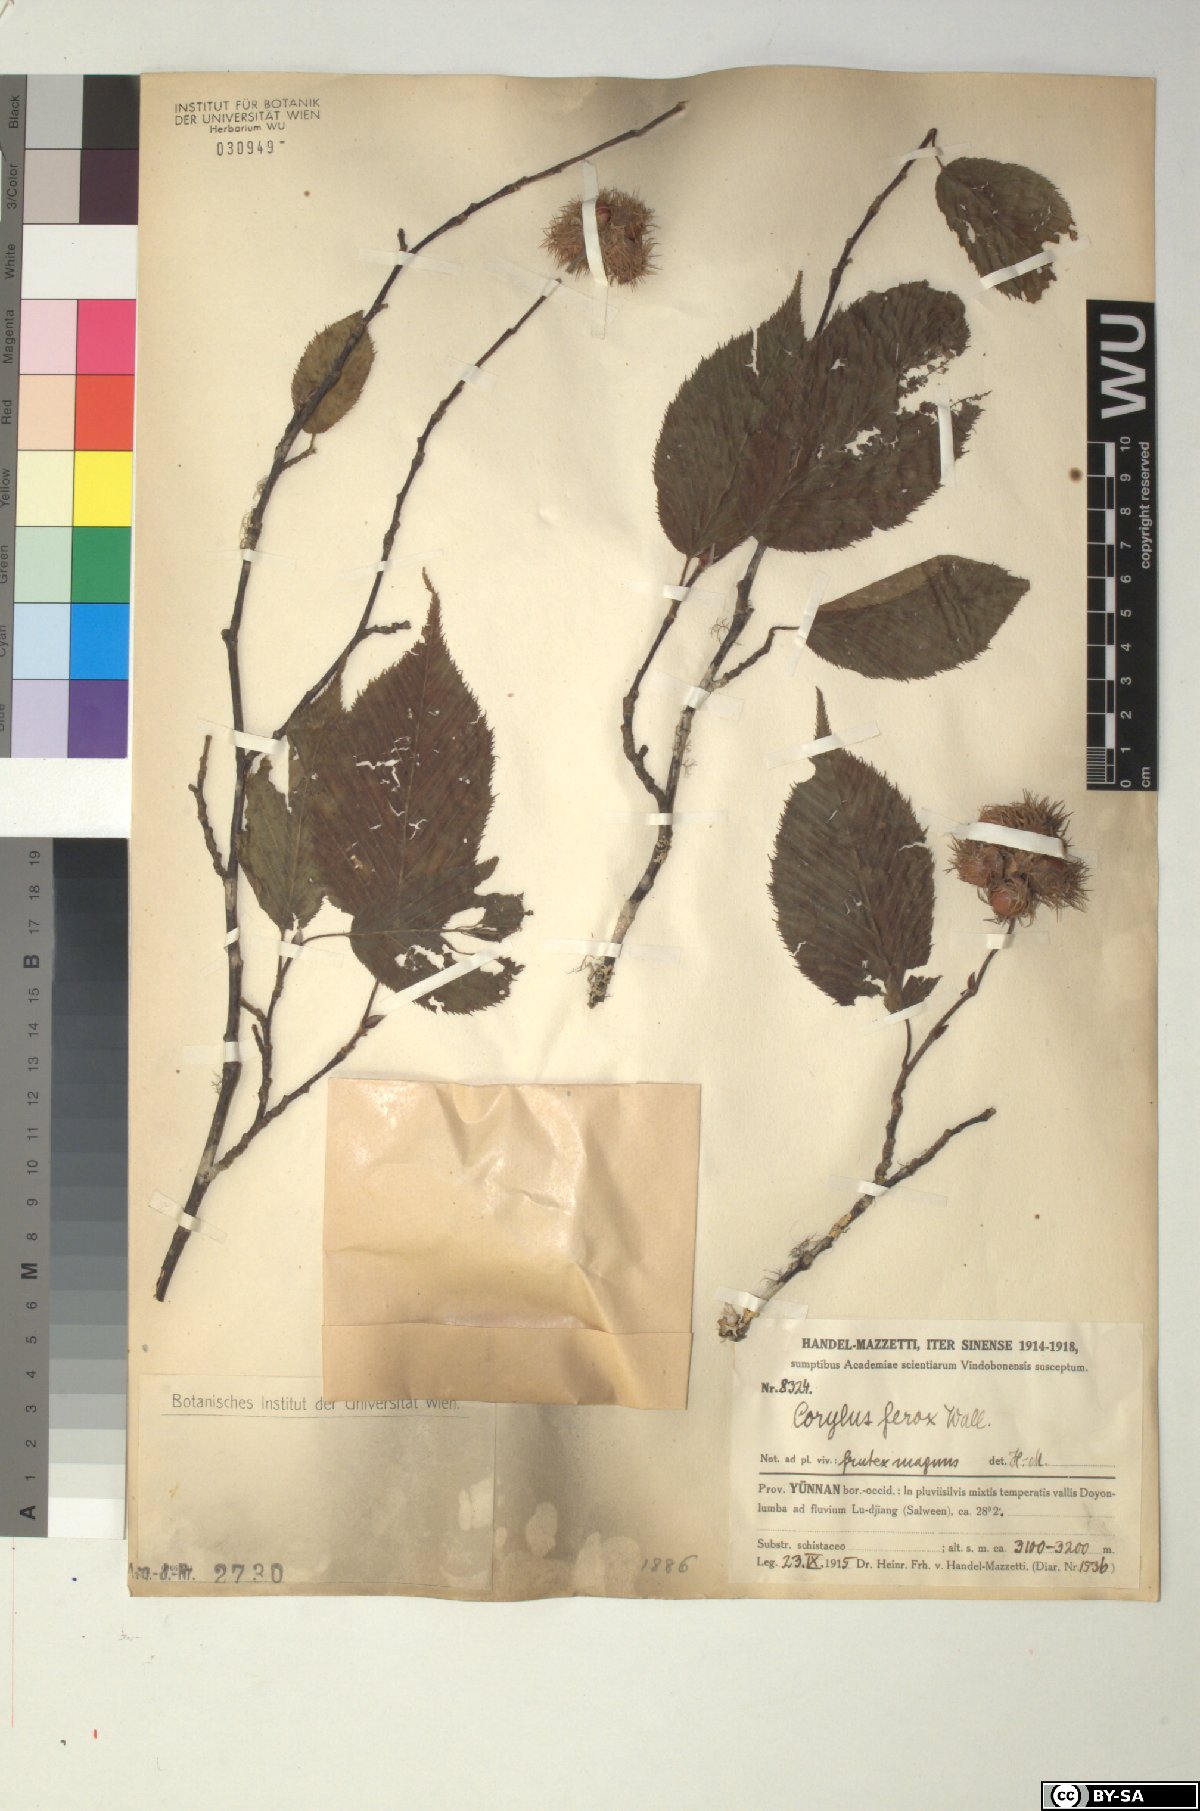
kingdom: Plantae
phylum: Tracheophyta
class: Magnoliopsida
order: Fagales
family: Betulaceae
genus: Corylus
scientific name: Corylus ferox
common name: Himalayan hazel
